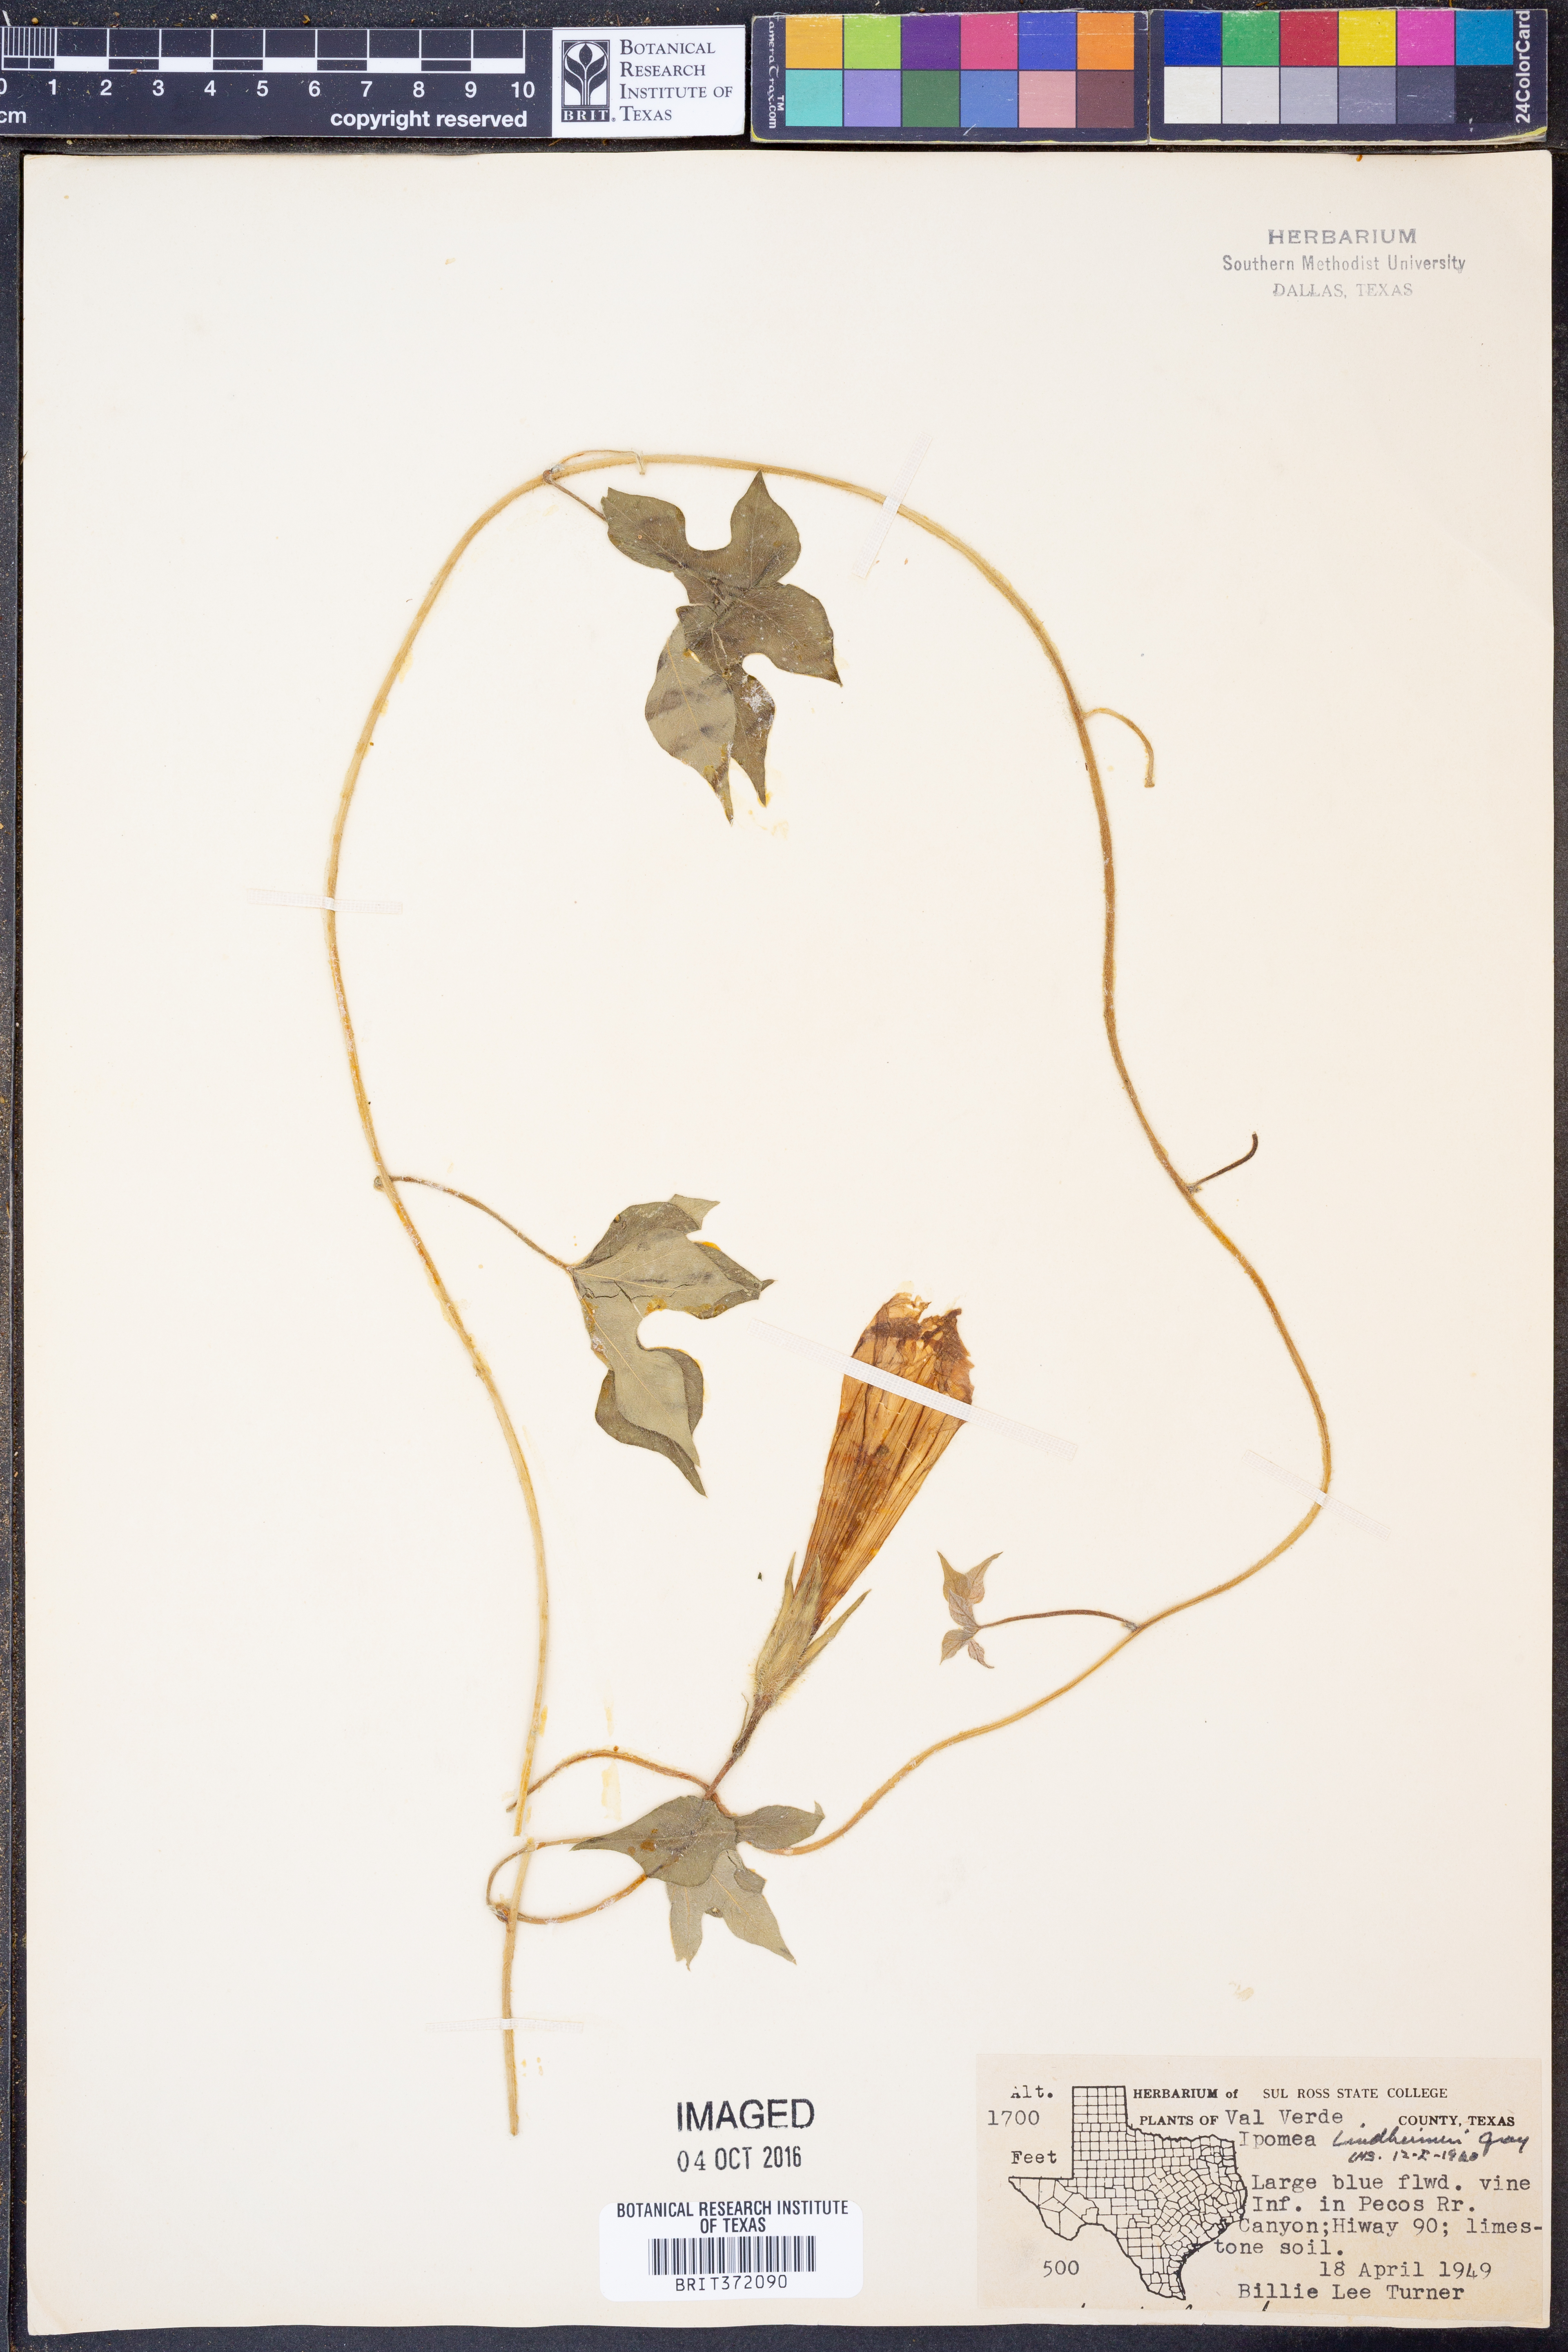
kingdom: Plantae
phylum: Tracheophyta
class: Magnoliopsida
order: Solanales
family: Convolvulaceae
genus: Ipomoea
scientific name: Ipomoea lindheimeri
